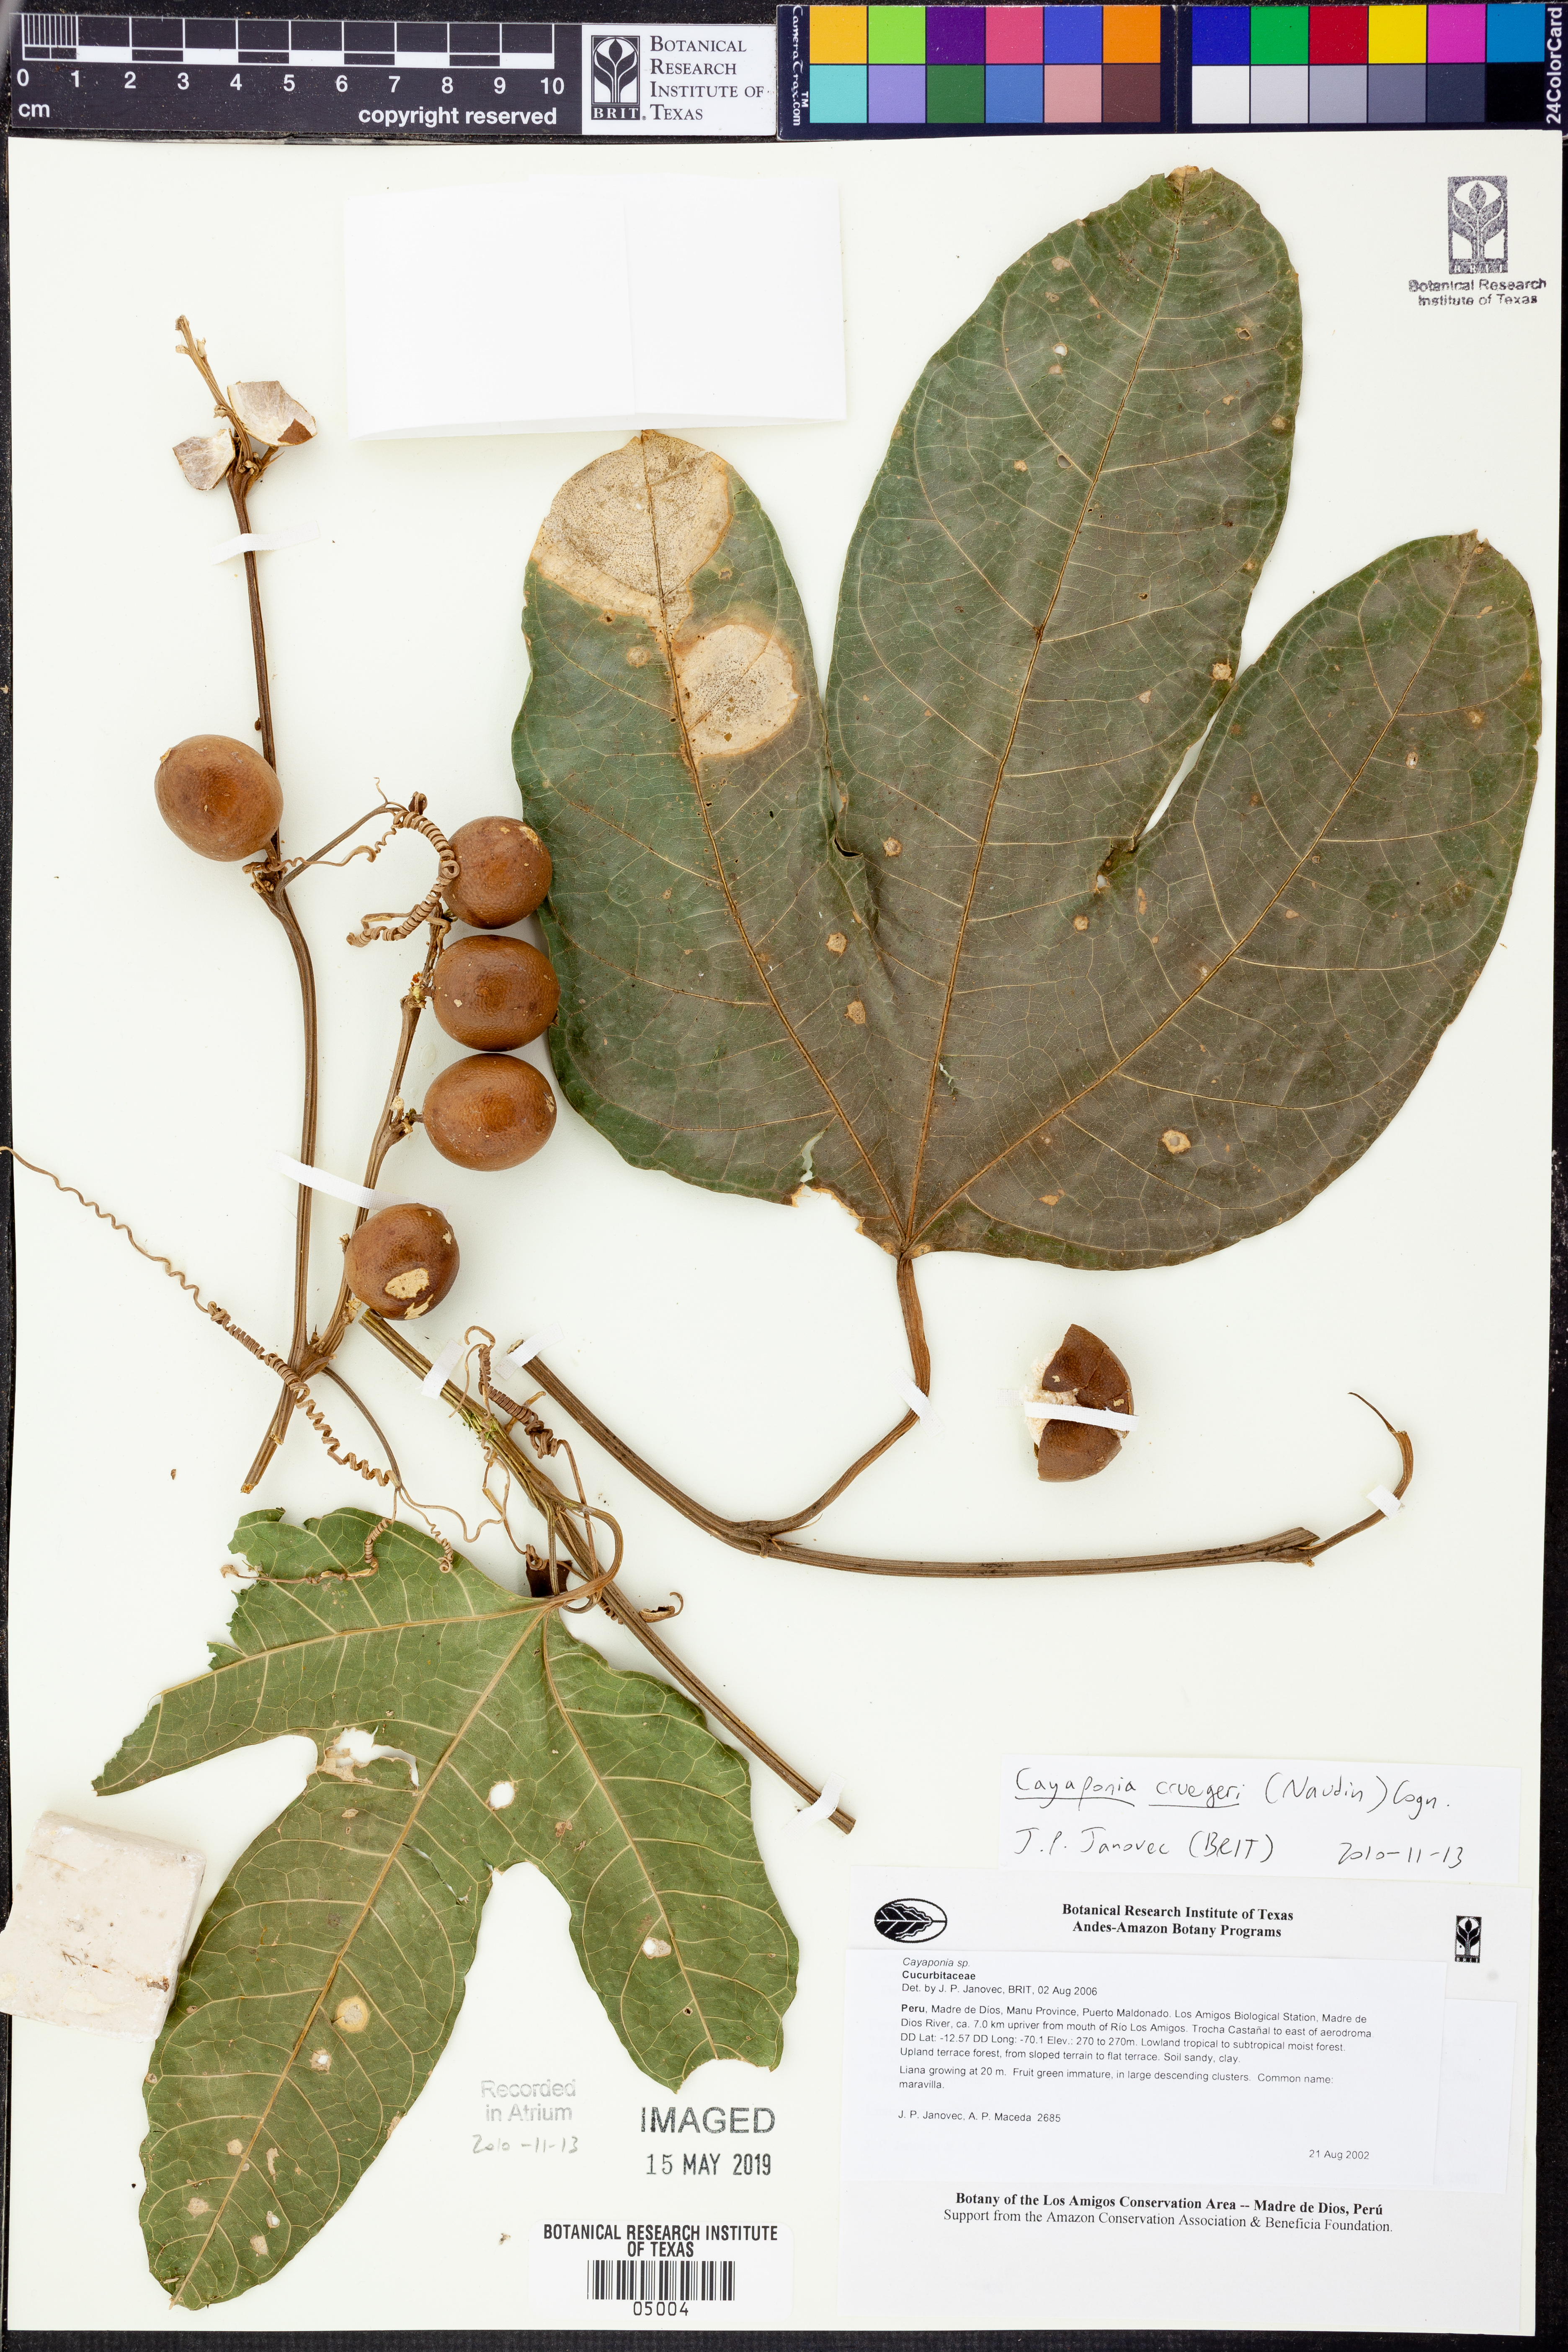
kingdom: Plantae
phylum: Tracheophyta
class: Magnoliopsida
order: Cucurbitales
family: Cucurbitaceae
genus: Cayaponia
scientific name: Cayaponia
